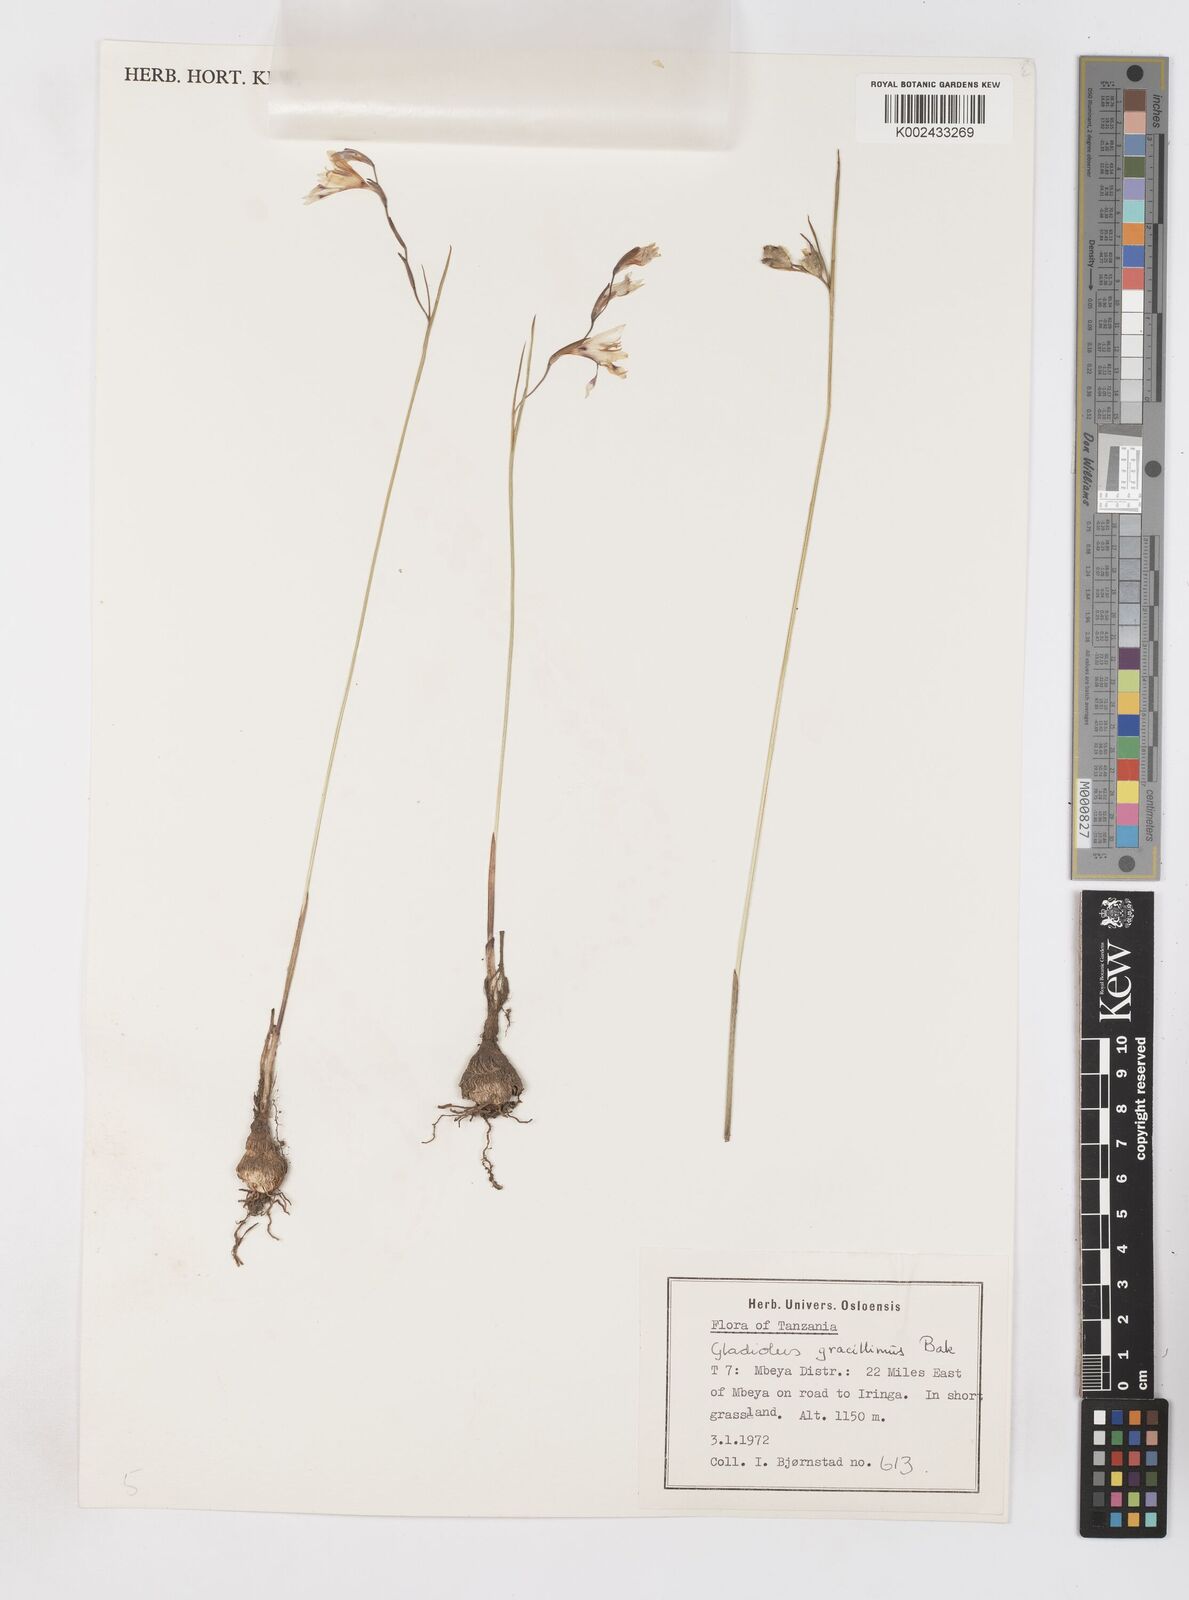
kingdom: Plantae
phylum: Tracheophyta
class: Liliopsida
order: Asparagales
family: Iridaceae
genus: Gladiolus
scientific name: Gladiolus gracillimus
